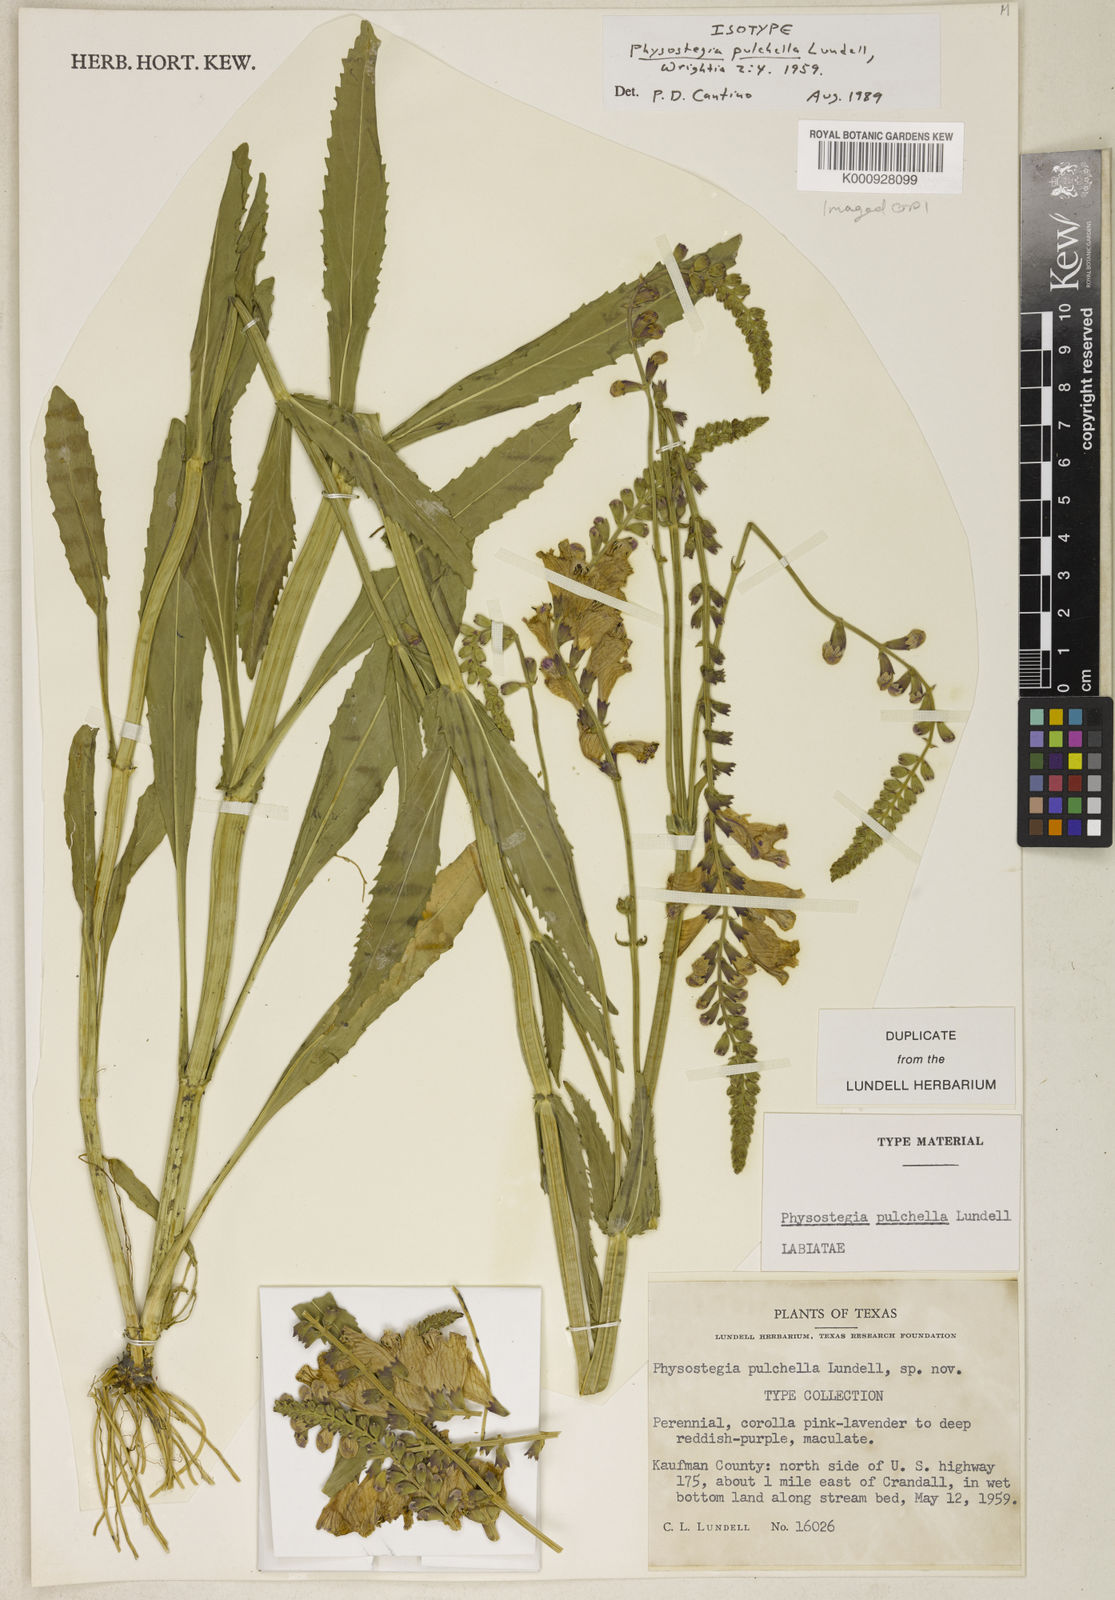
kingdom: Plantae
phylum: Tracheophyta
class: Magnoliopsida
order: Lamiales
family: Lamiaceae
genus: Physostegia
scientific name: Physostegia pulchella
